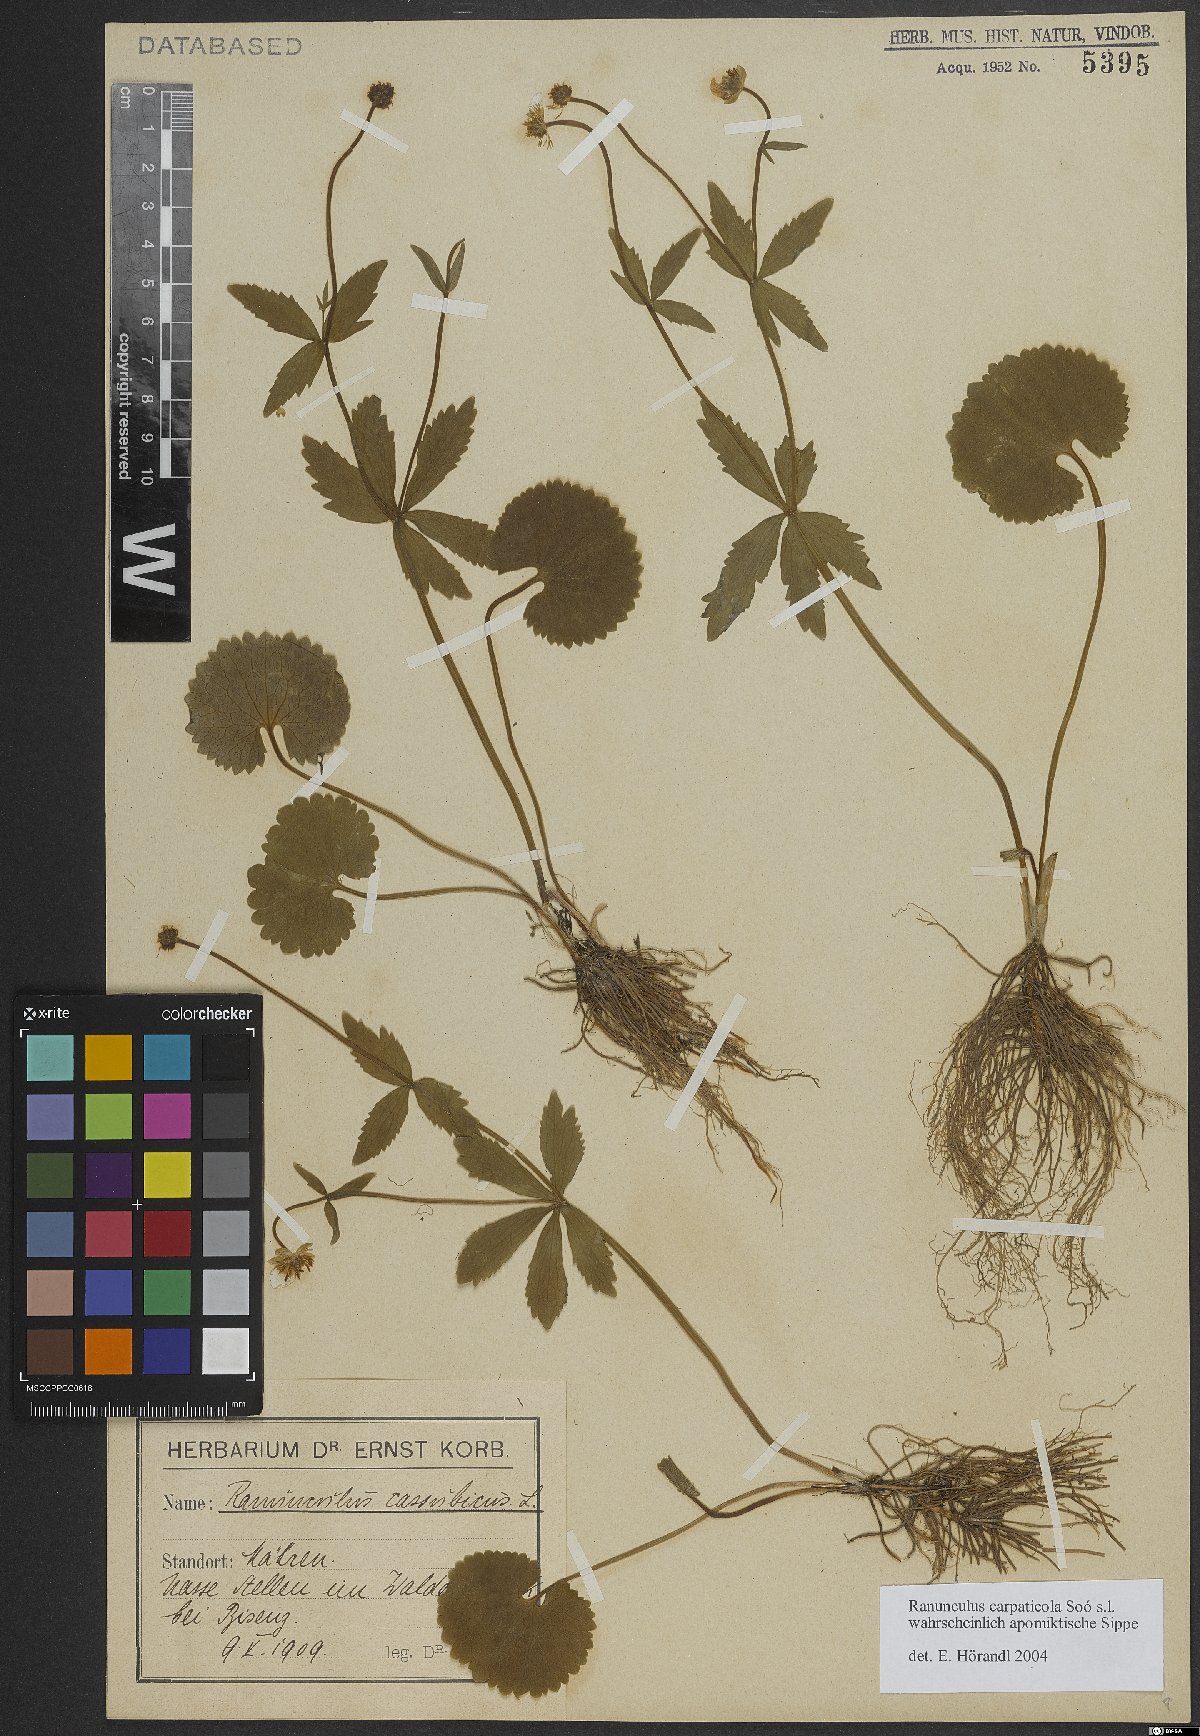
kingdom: Plantae
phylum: Tracheophyta
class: Magnoliopsida
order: Ranunculales
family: Ranunculaceae
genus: Ranunculus
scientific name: Ranunculus cassubicifolius
